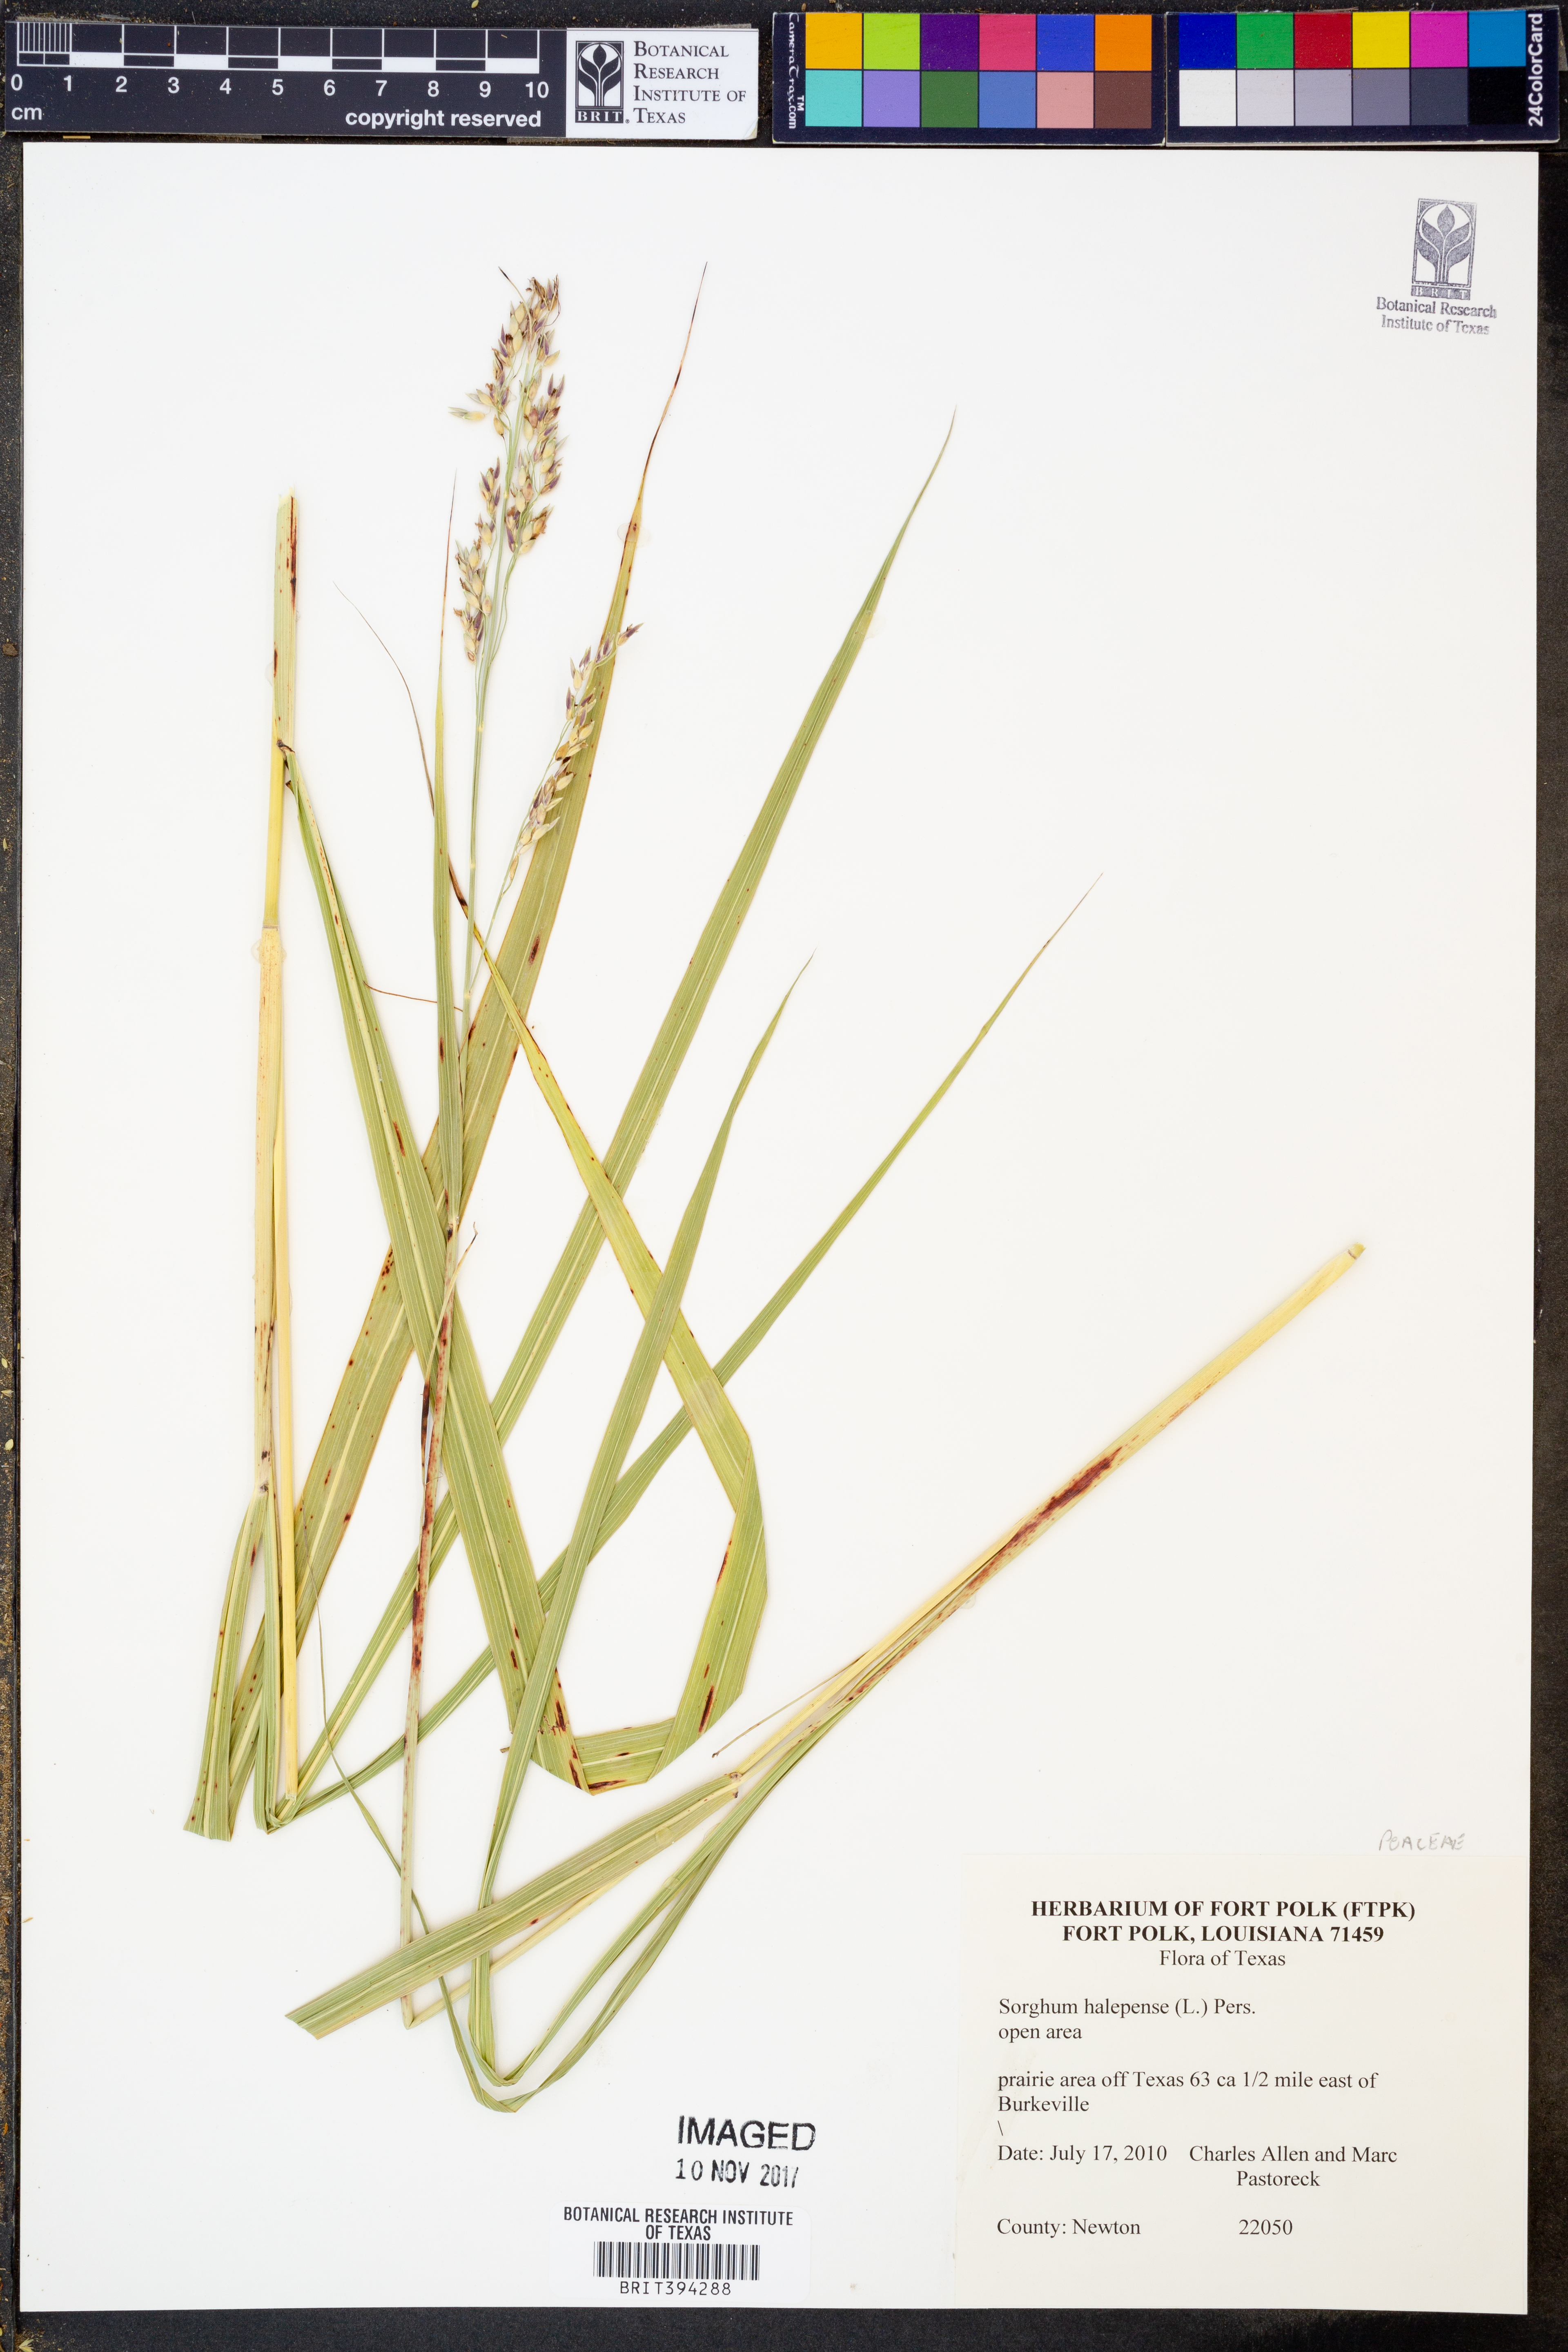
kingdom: Plantae
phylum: Tracheophyta
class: Liliopsida
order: Poales
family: Poaceae
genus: Sorghum
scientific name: Sorghum halepense
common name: Johnson-grass
